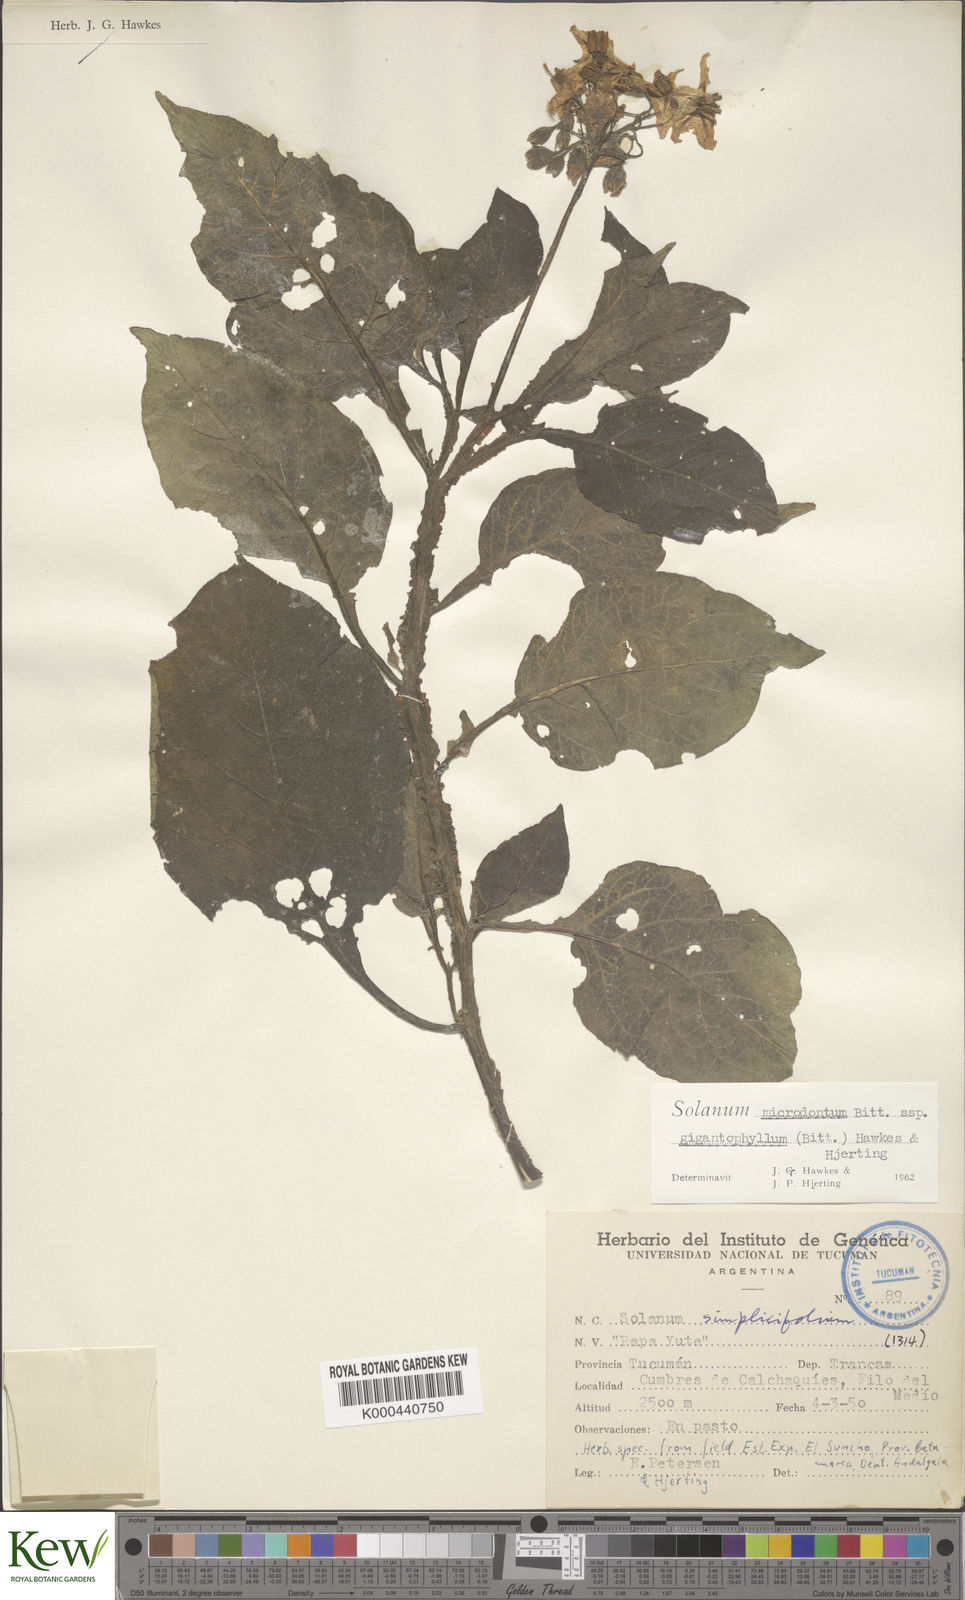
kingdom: Plantae
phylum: Tracheophyta
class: Magnoliopsida
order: Solanales
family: Solanaceae
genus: Solanum
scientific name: Solanum microdontum
